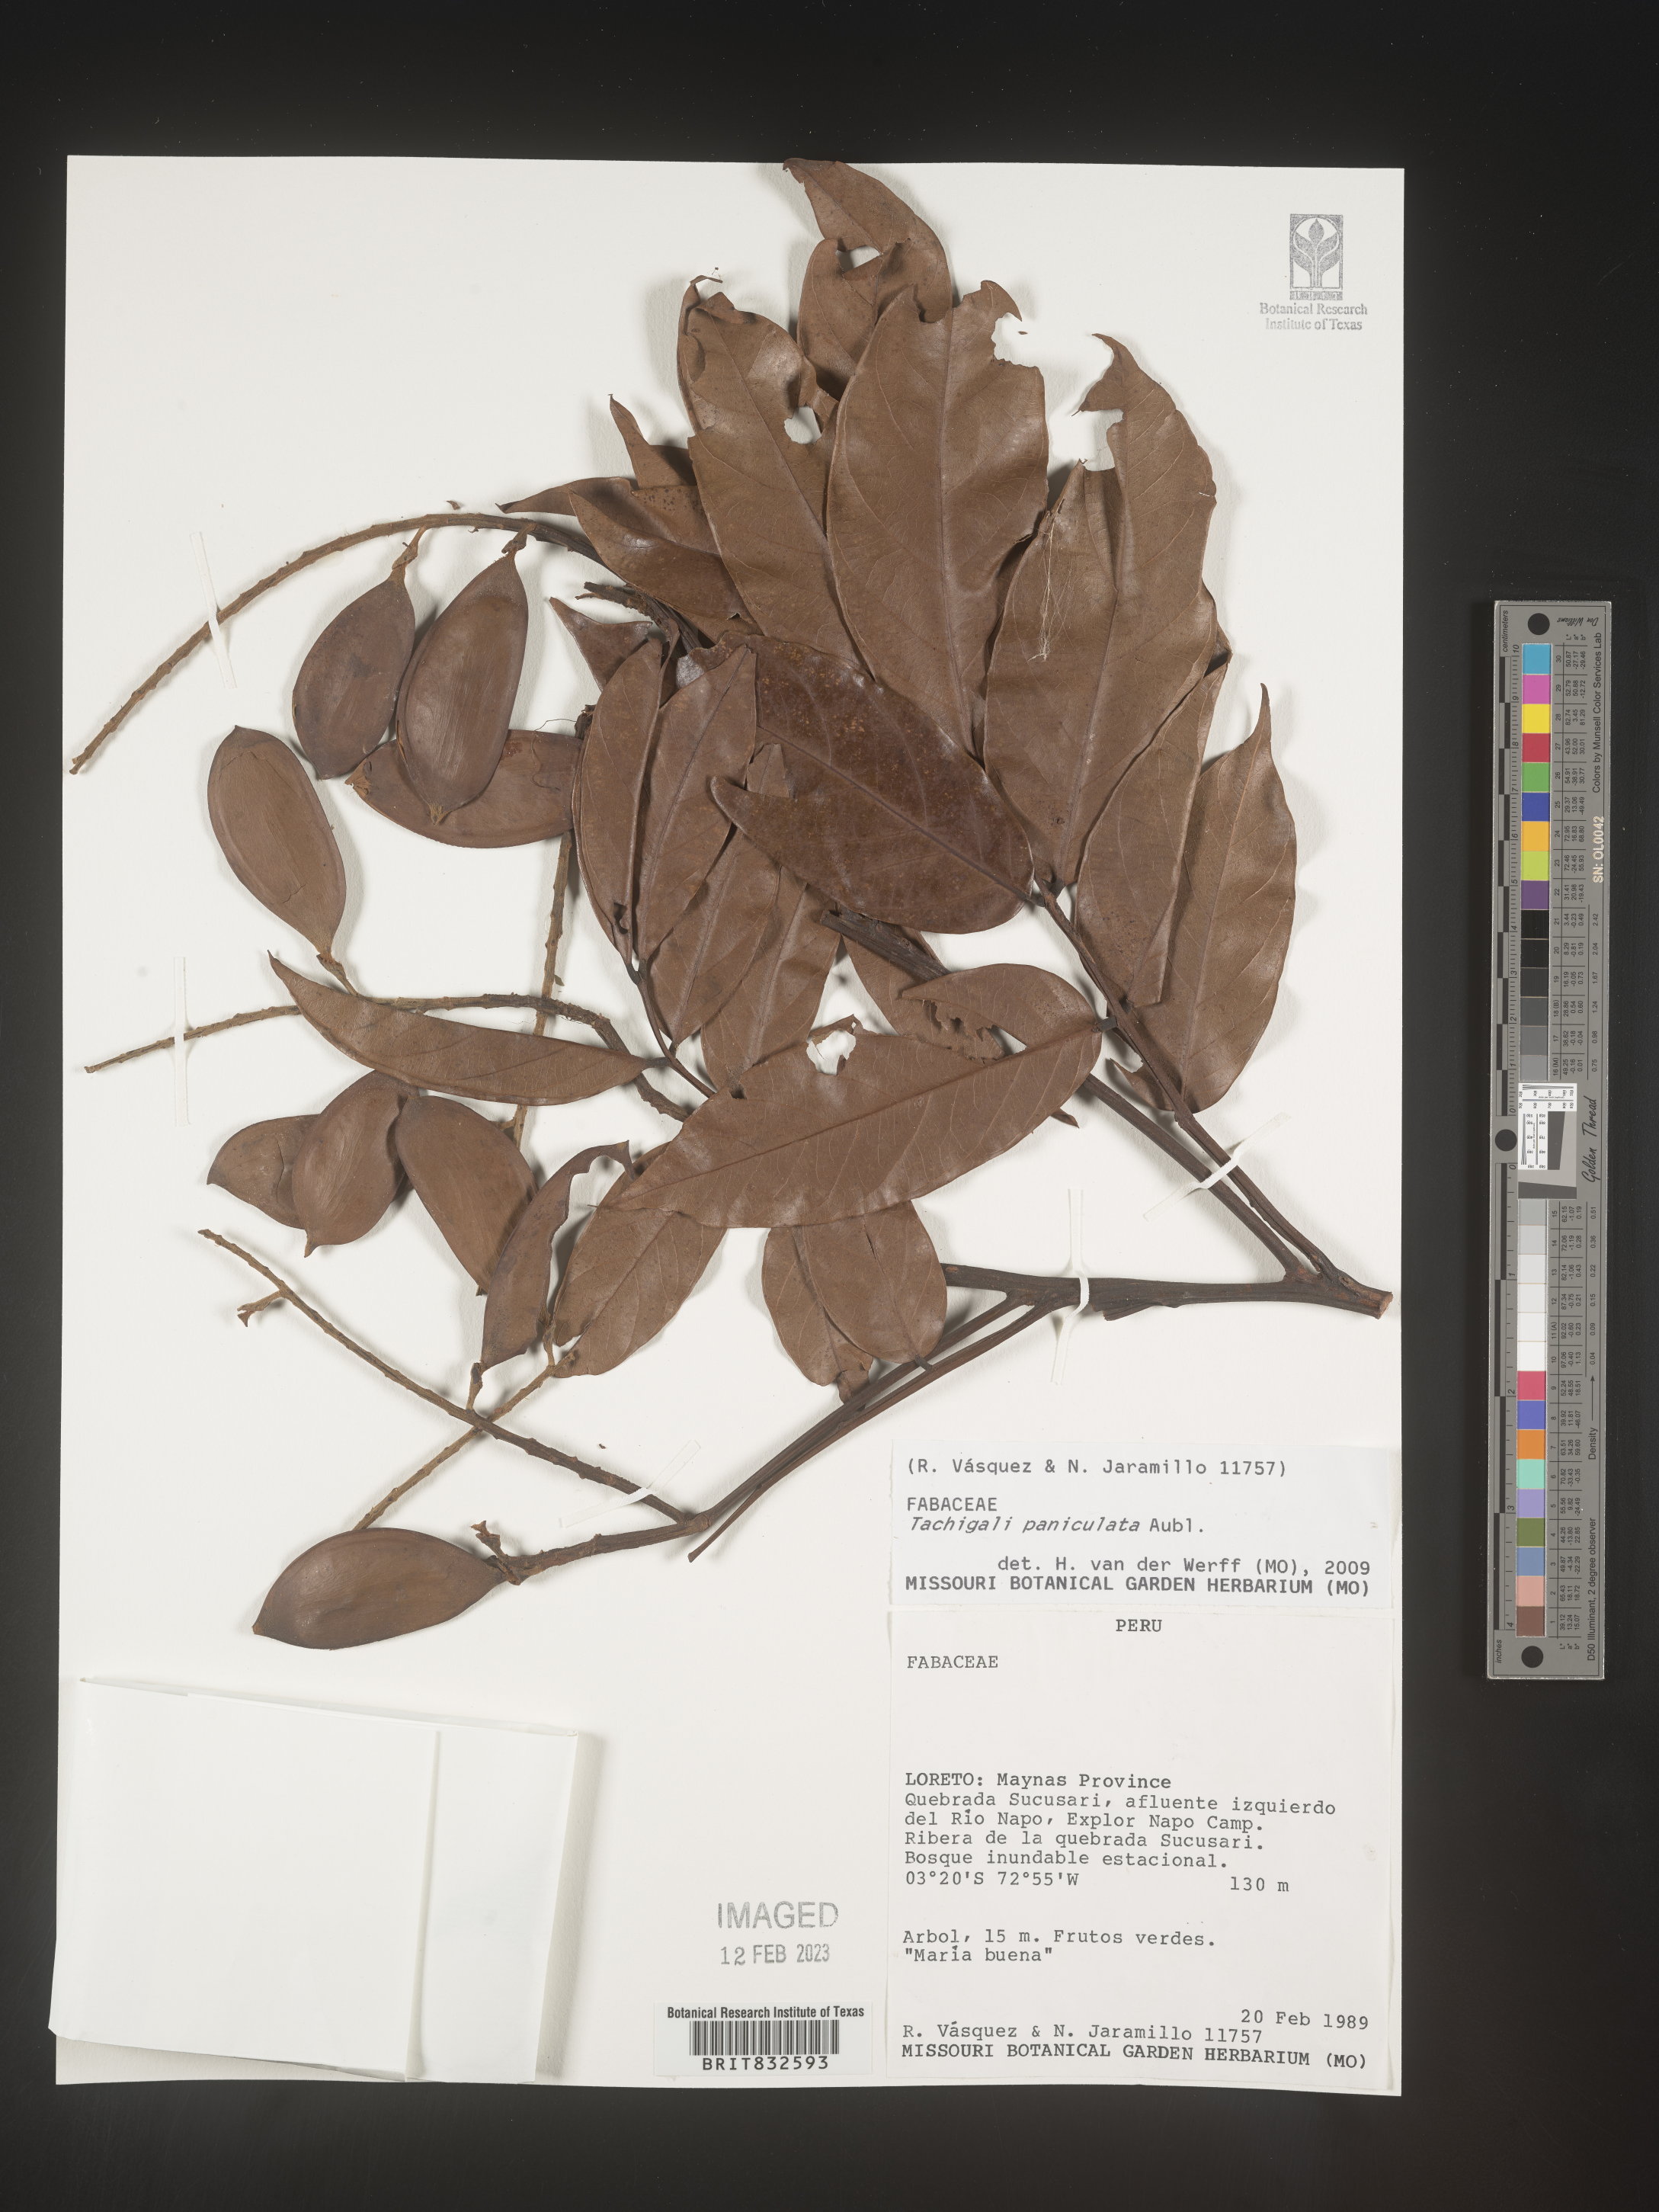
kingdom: Plantae
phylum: Tracheophyta
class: Magnoliopsida
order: Fabales
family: Fabaceae
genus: Tachigali
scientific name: Tachigali
